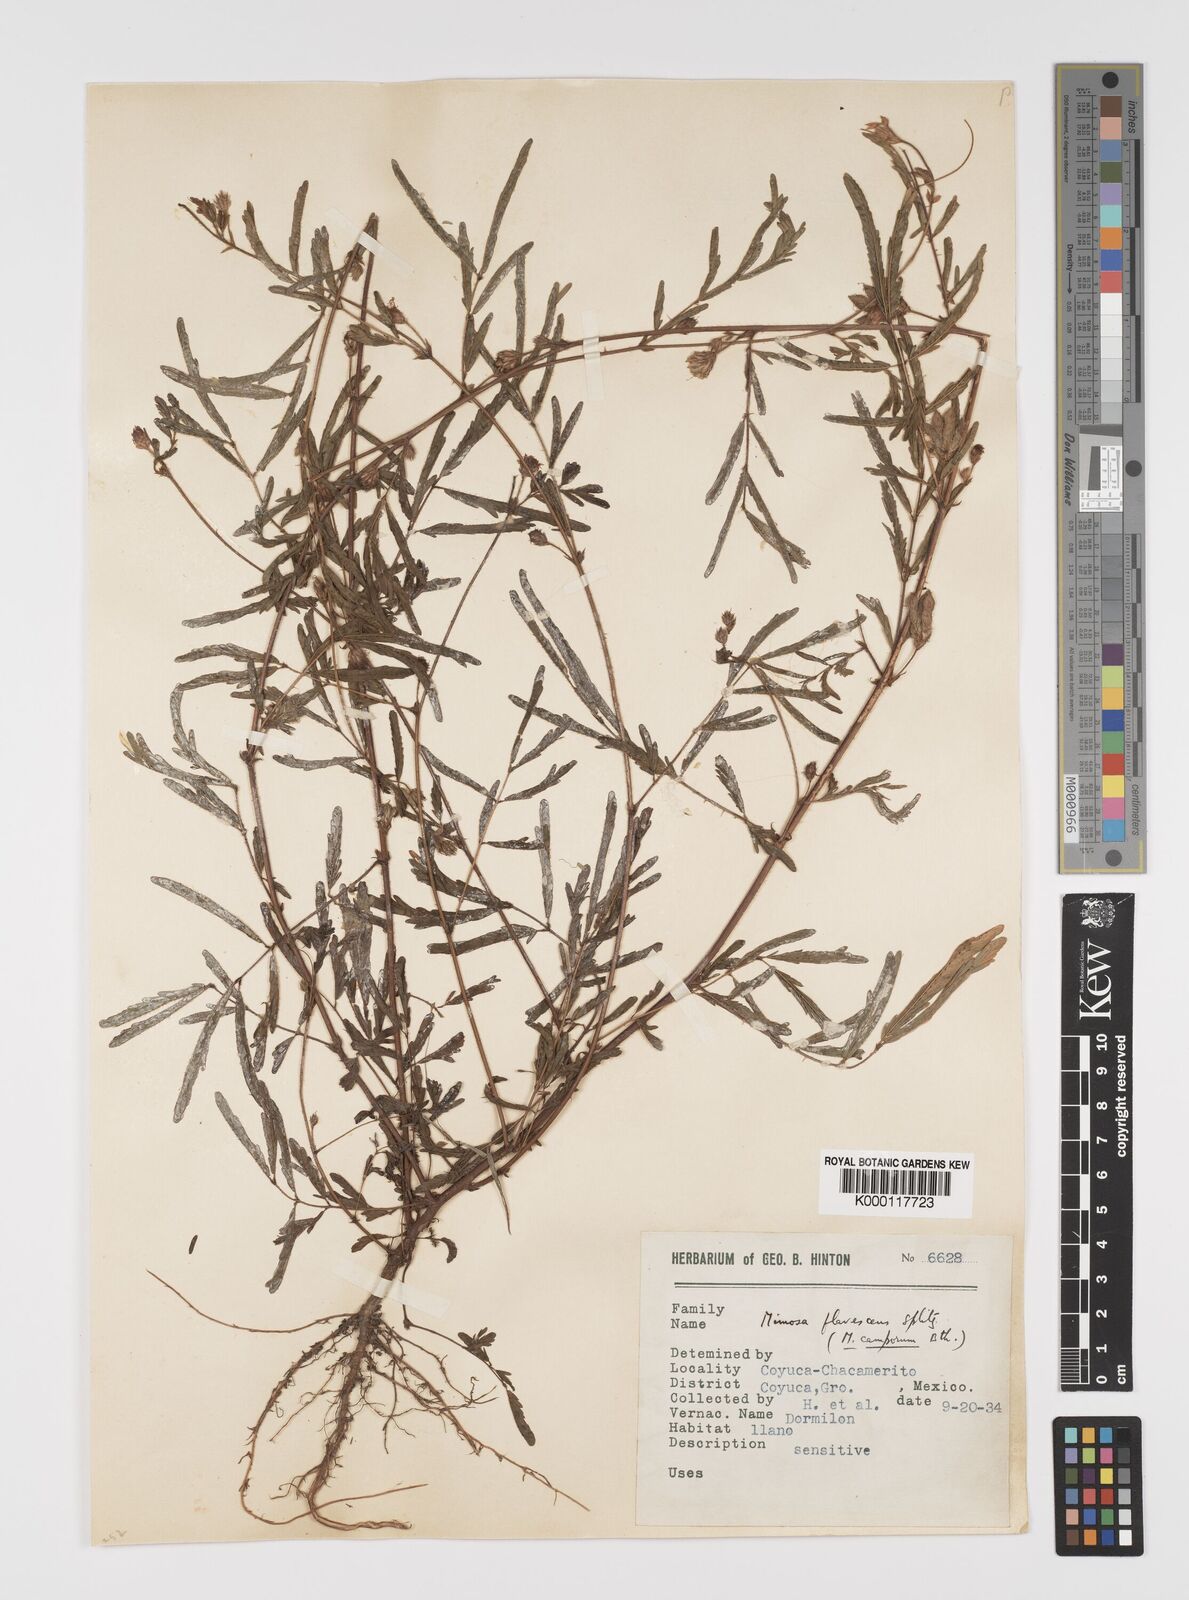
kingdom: Plantae
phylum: Tracheophyta
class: Magnoliopsida
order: Fabales
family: Fabaceae
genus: Mimosa
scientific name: Mimosa camporum
